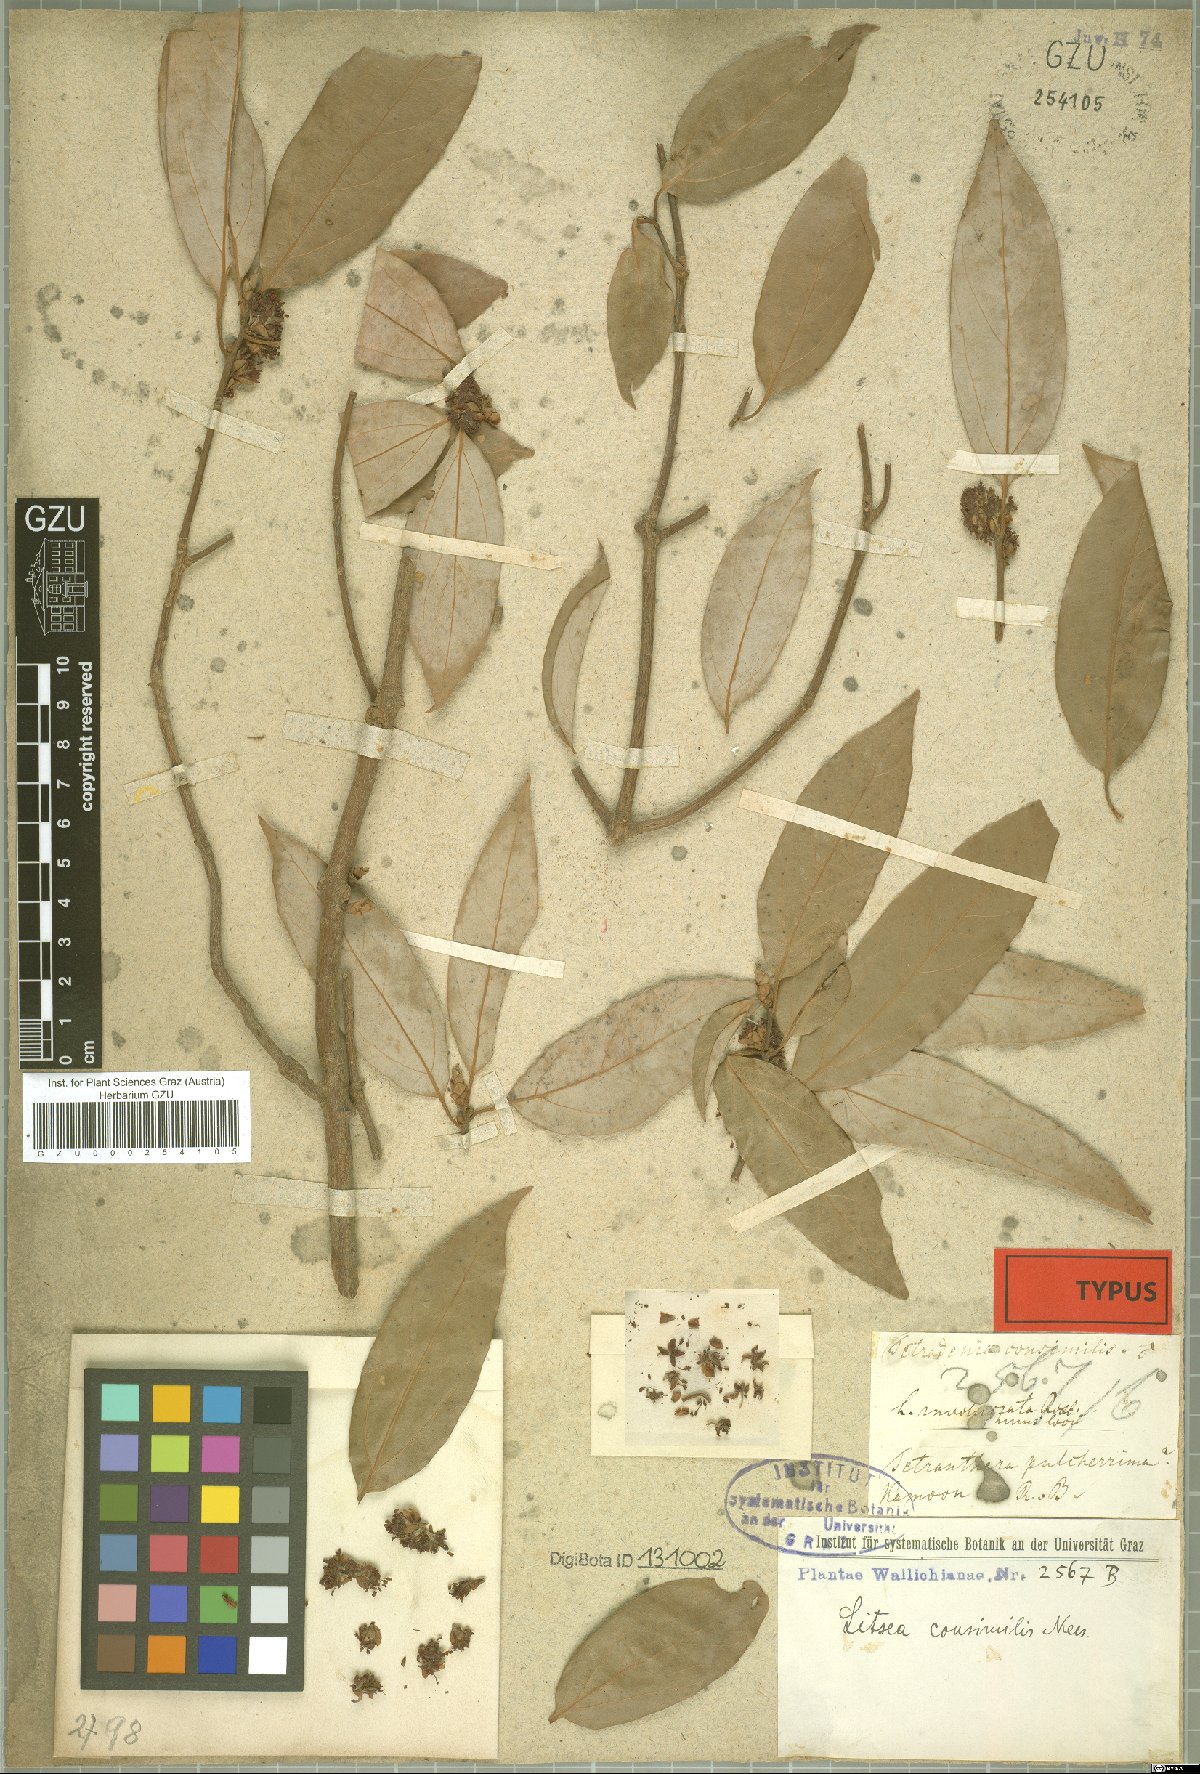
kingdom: Plantae
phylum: Tracheophyta
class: Magnoliopsida
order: Laurales
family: Lauraceae
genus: Neolitsea
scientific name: Neolitsea pallens
